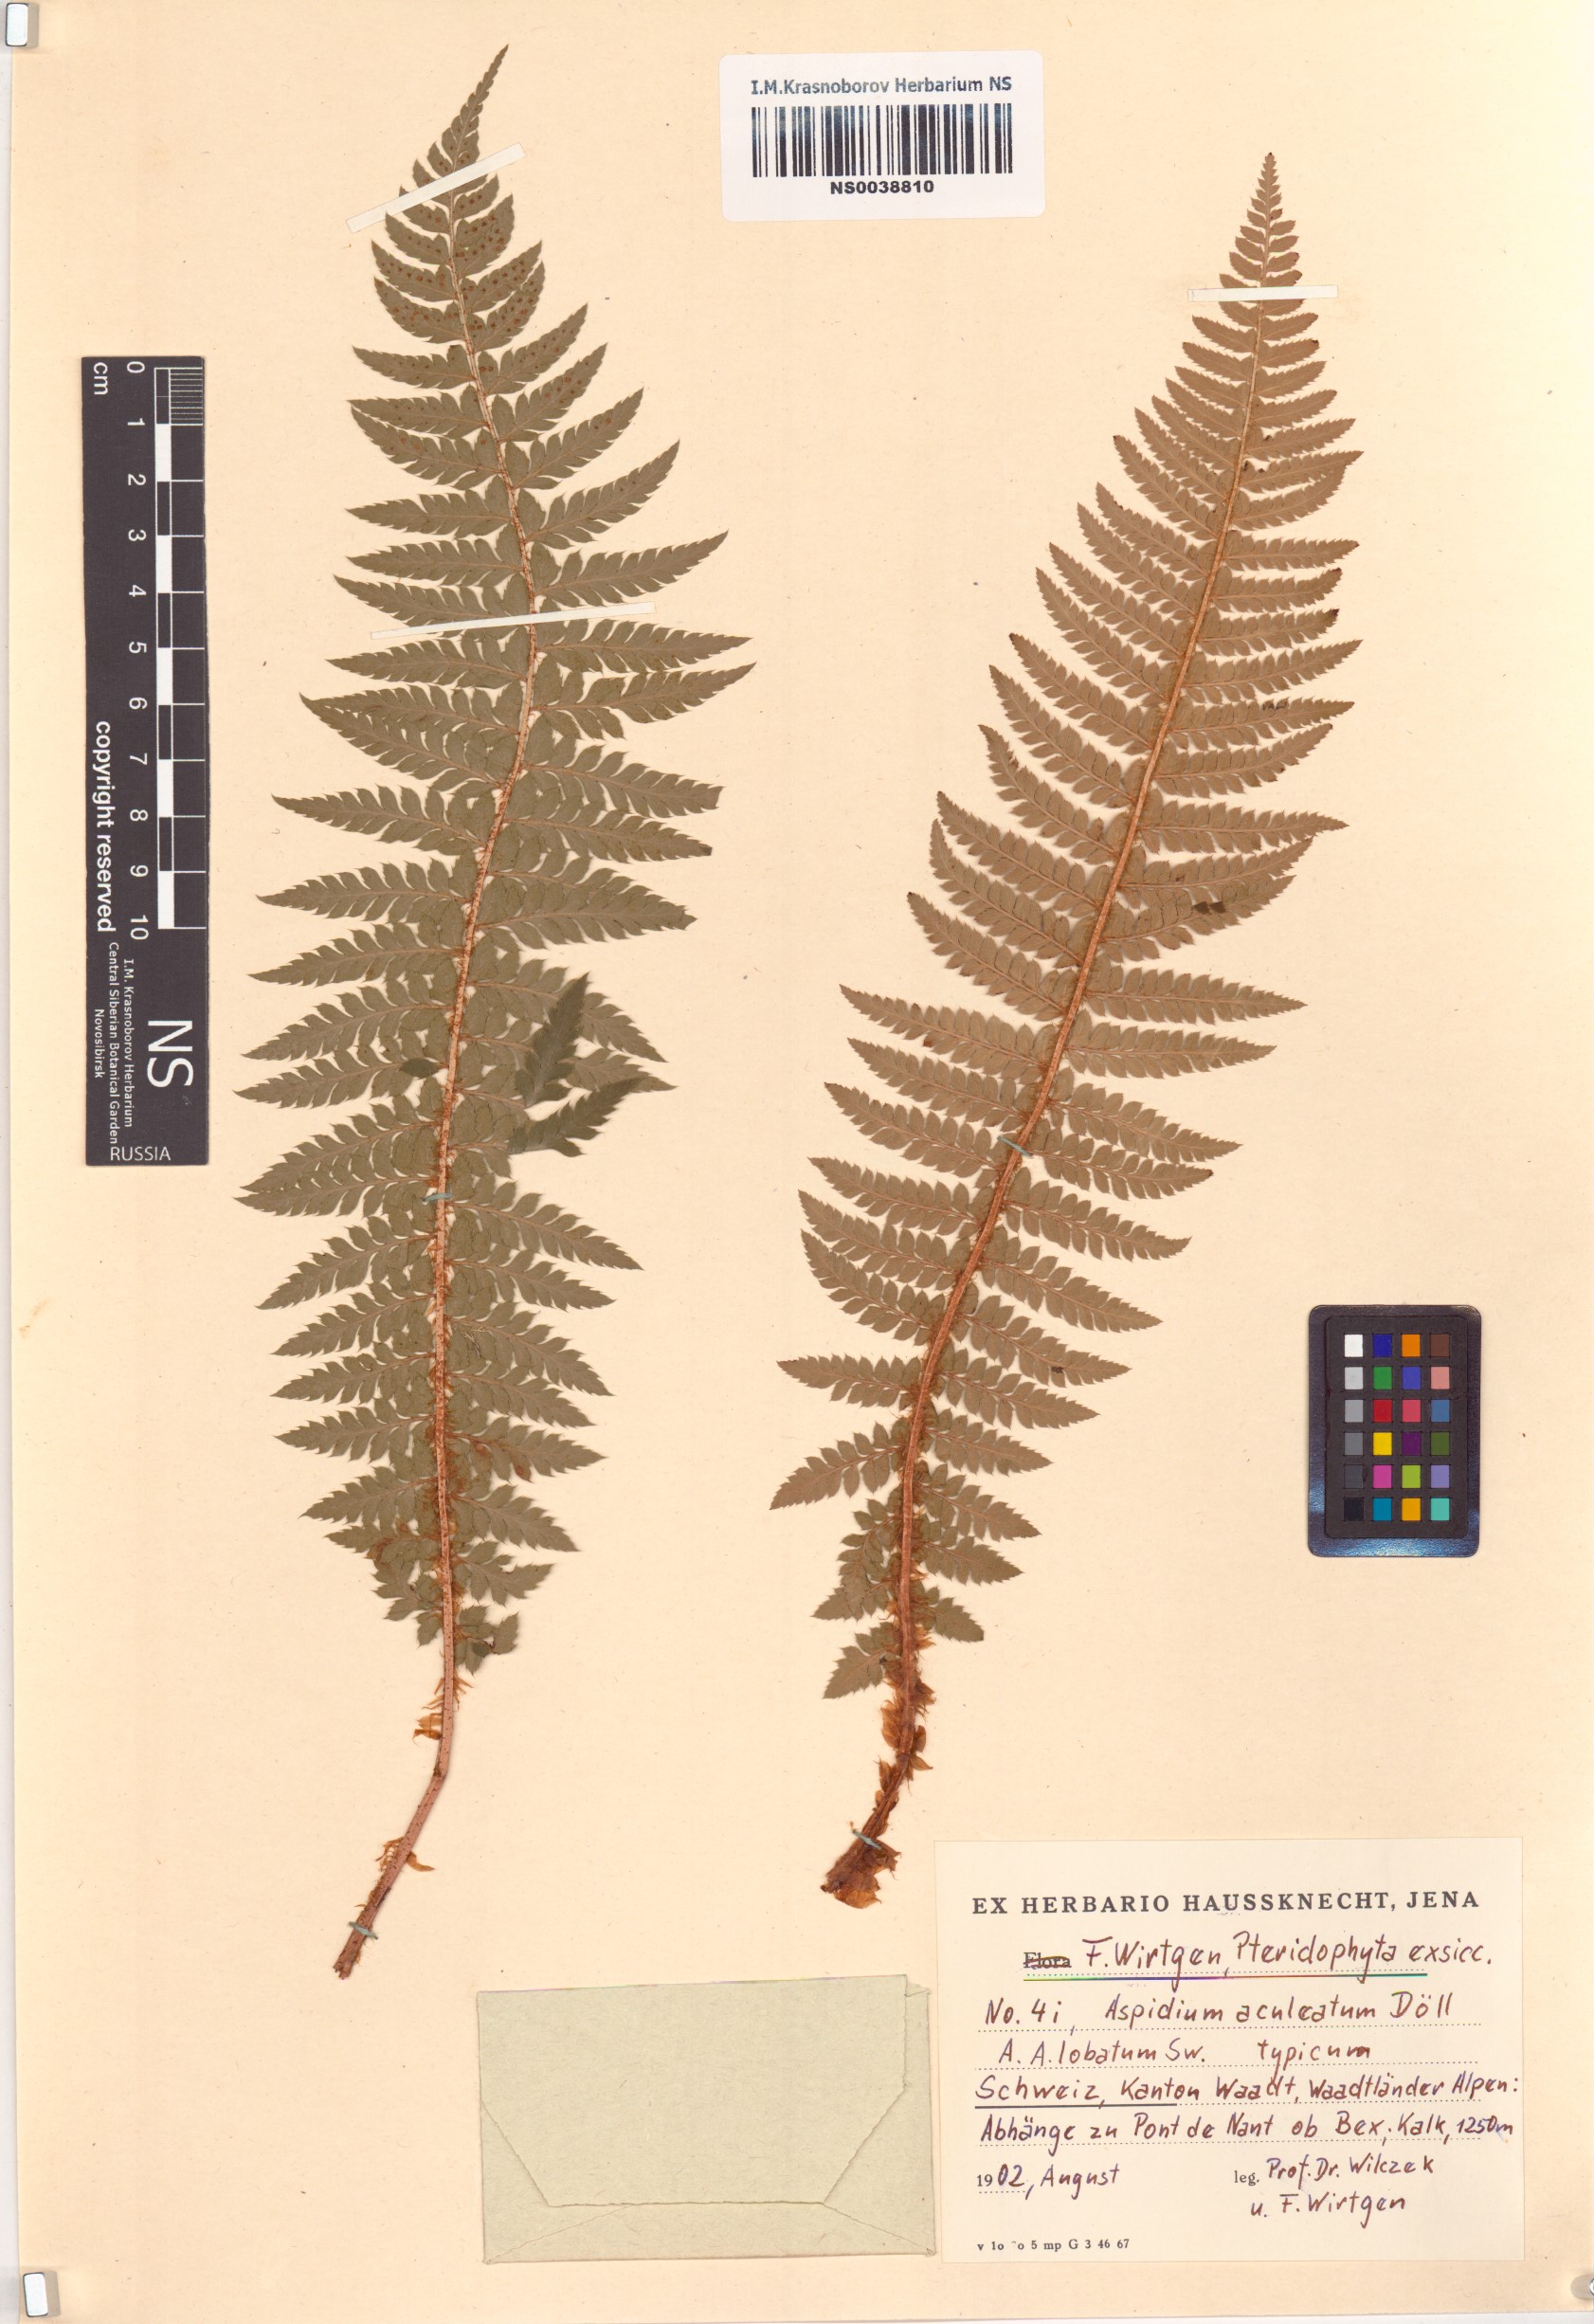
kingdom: Plantae
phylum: Tracheophyta
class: Polypodiopsida
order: Polypodiales
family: Dryopteridaceae
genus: Polystichum
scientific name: Polystichum aculeatum
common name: Hard shield-fern
